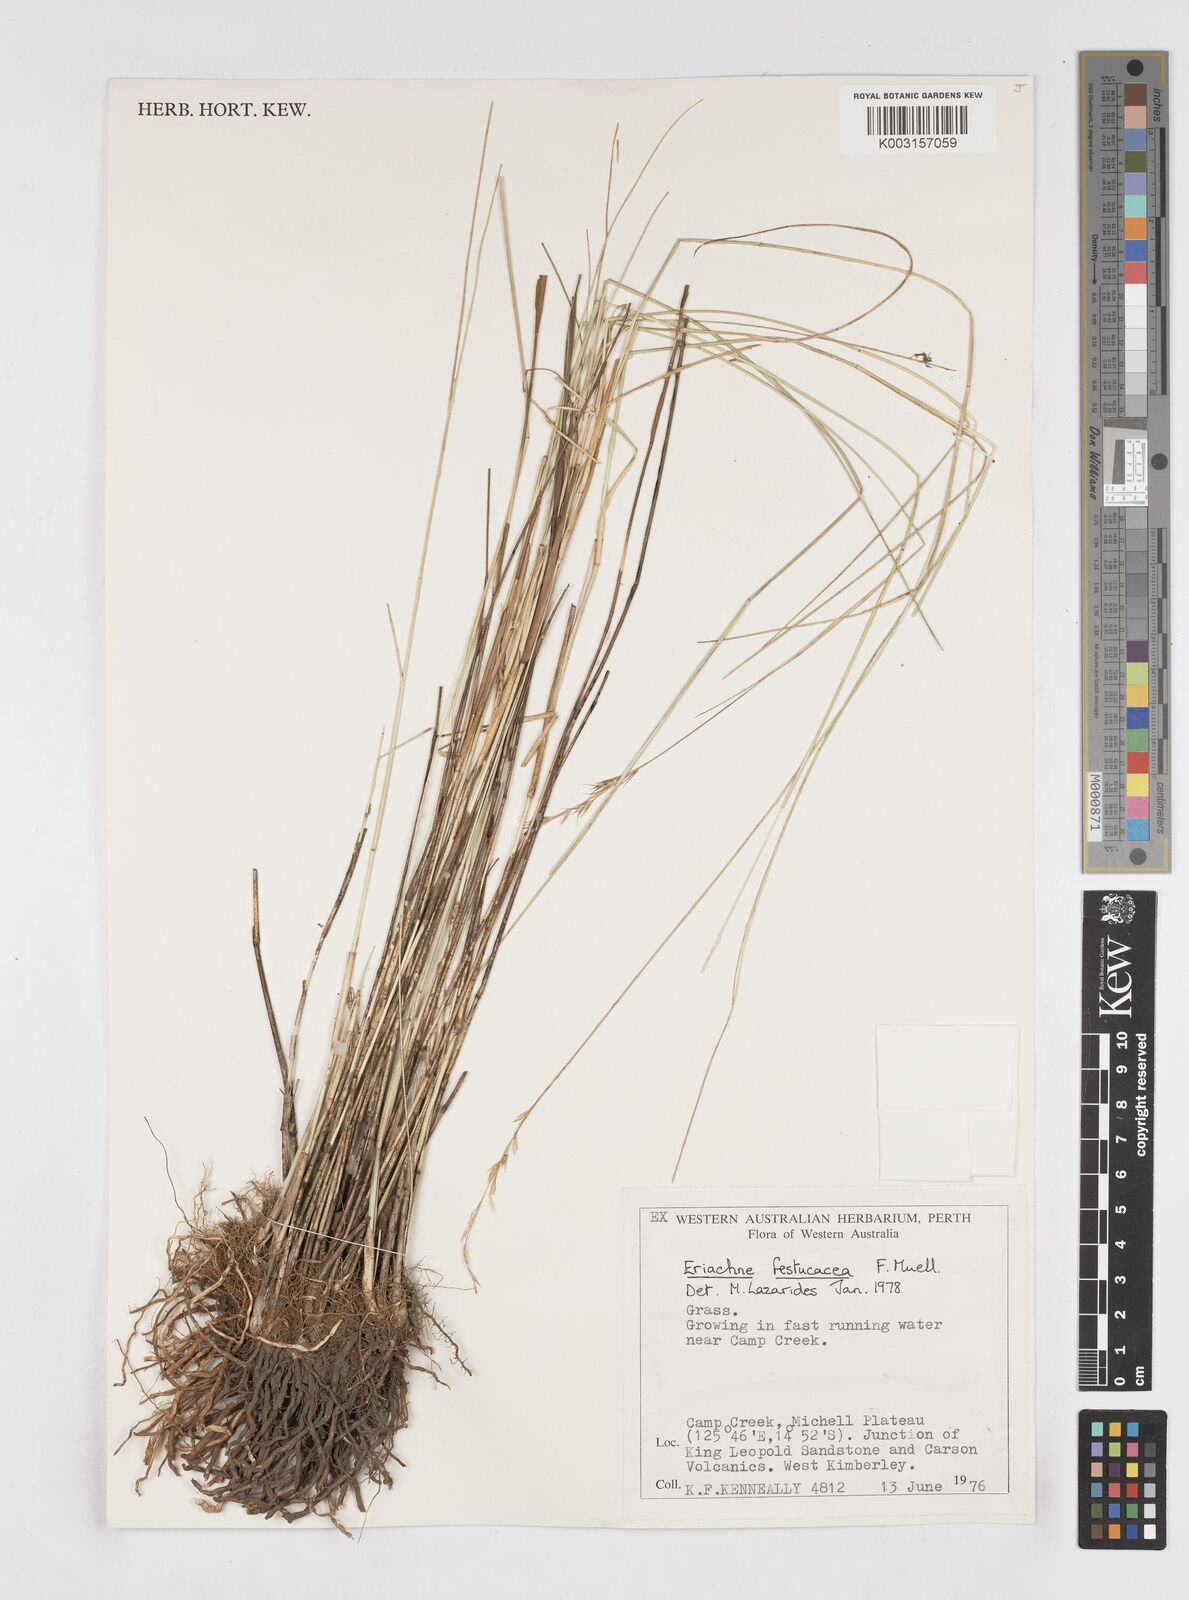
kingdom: Plantae
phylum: Tracheophyta
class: Liliopsida
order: Poales
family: Poaceae
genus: Eriachne
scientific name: Eriachne festucacea
